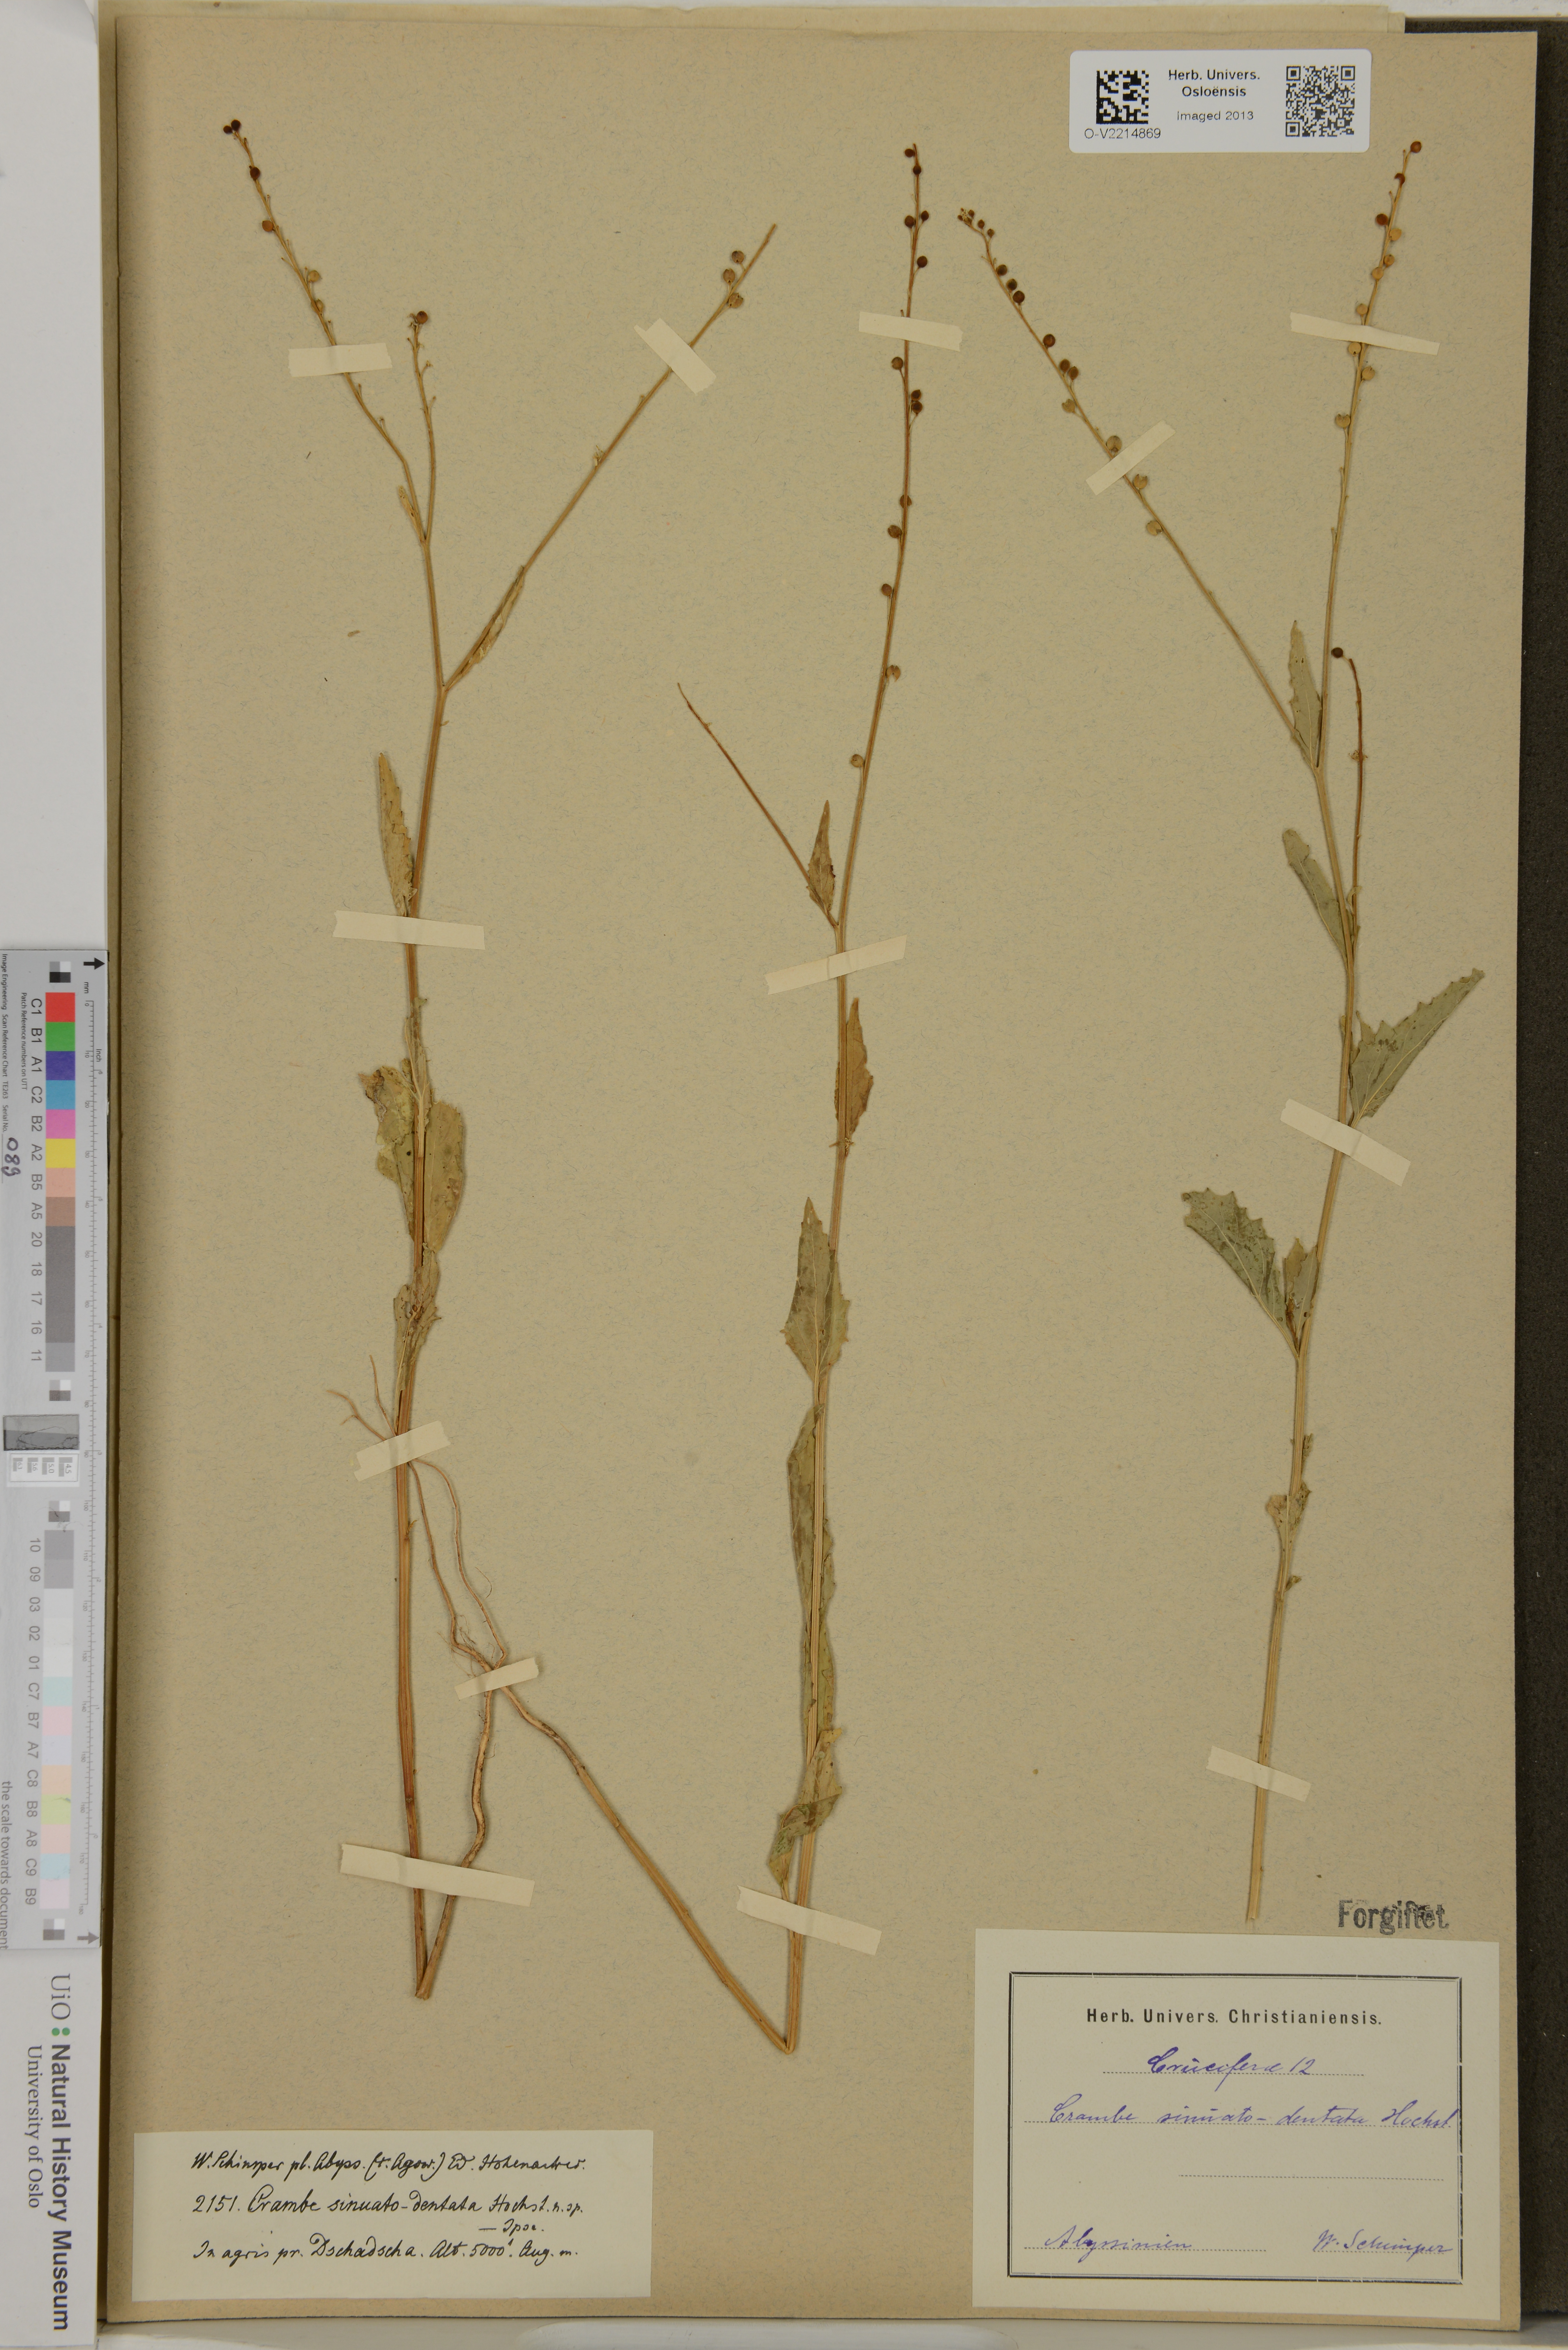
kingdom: Plantae
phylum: Tracheophyta
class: Magnoliopsida
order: Brassicales
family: Brassicaceae
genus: Crambe
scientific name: Crambe sinuato-dentata
